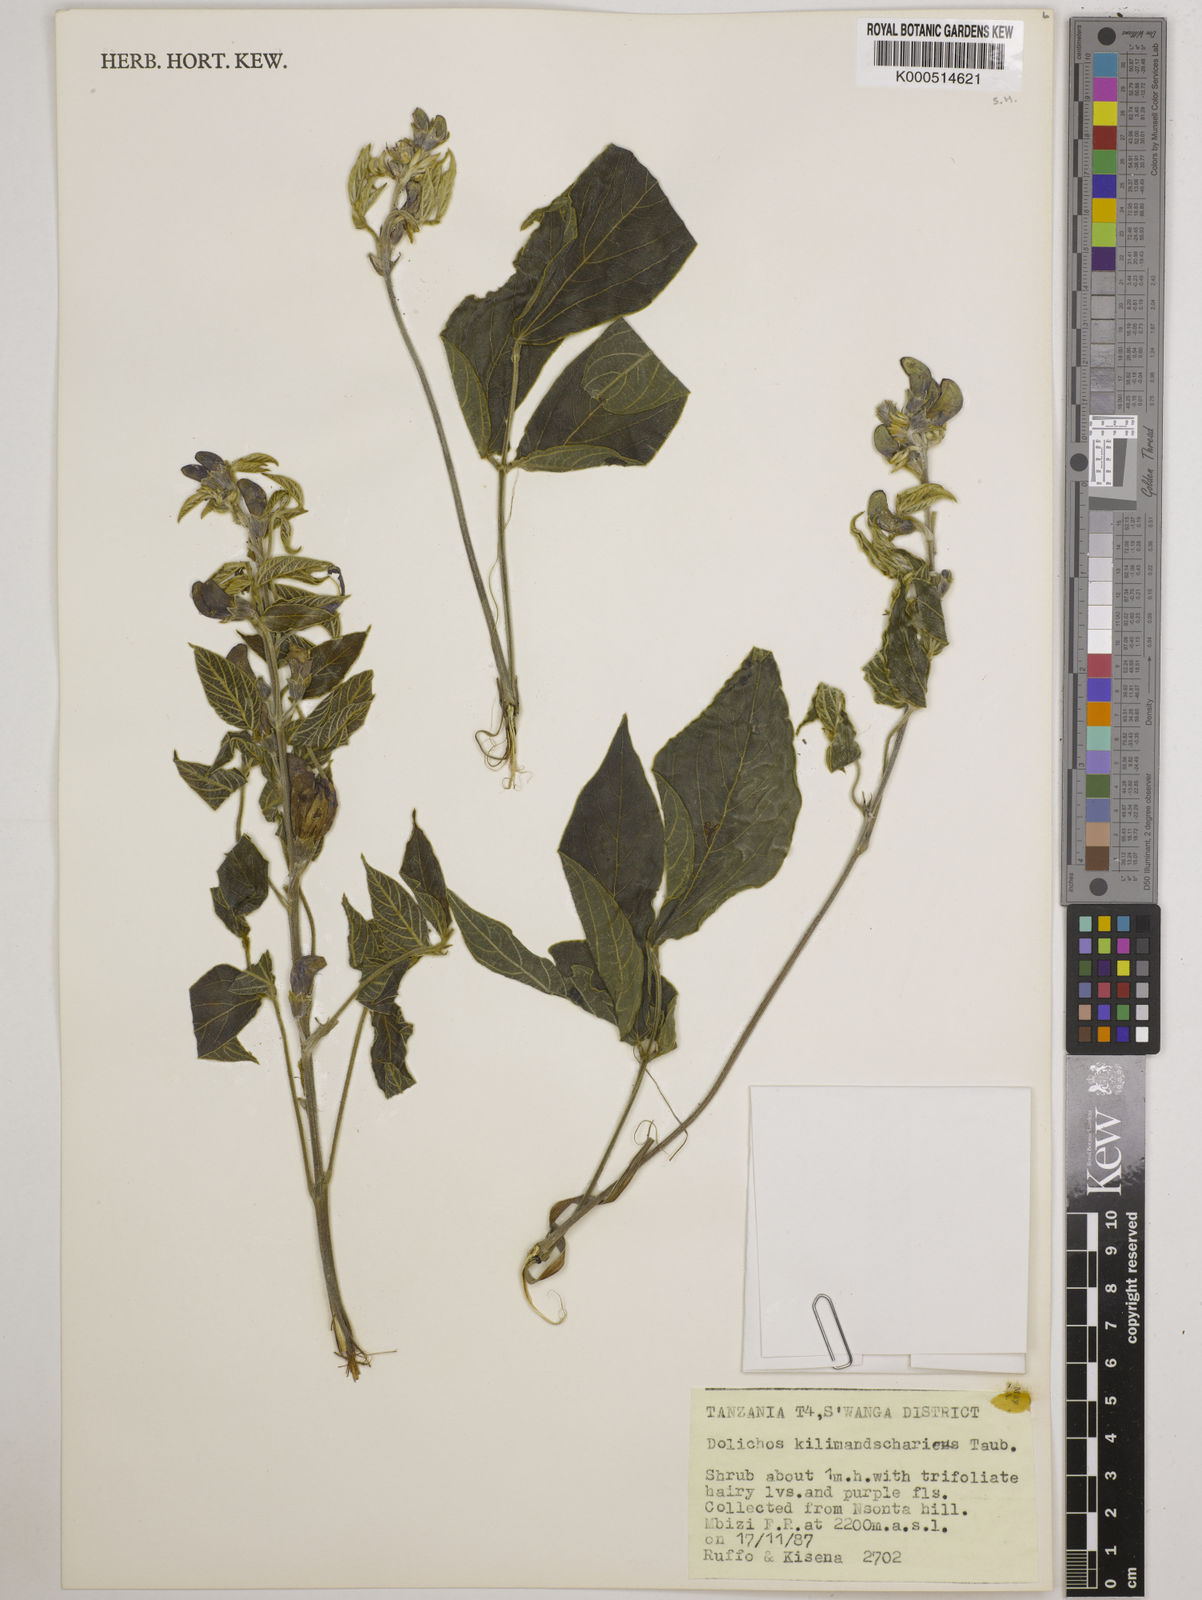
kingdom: Plantae
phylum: Tracheophyta
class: Magnoliopsida
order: Fabales
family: Fabaceae
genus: Dolichos
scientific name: Dolichos kilimandscharicus
